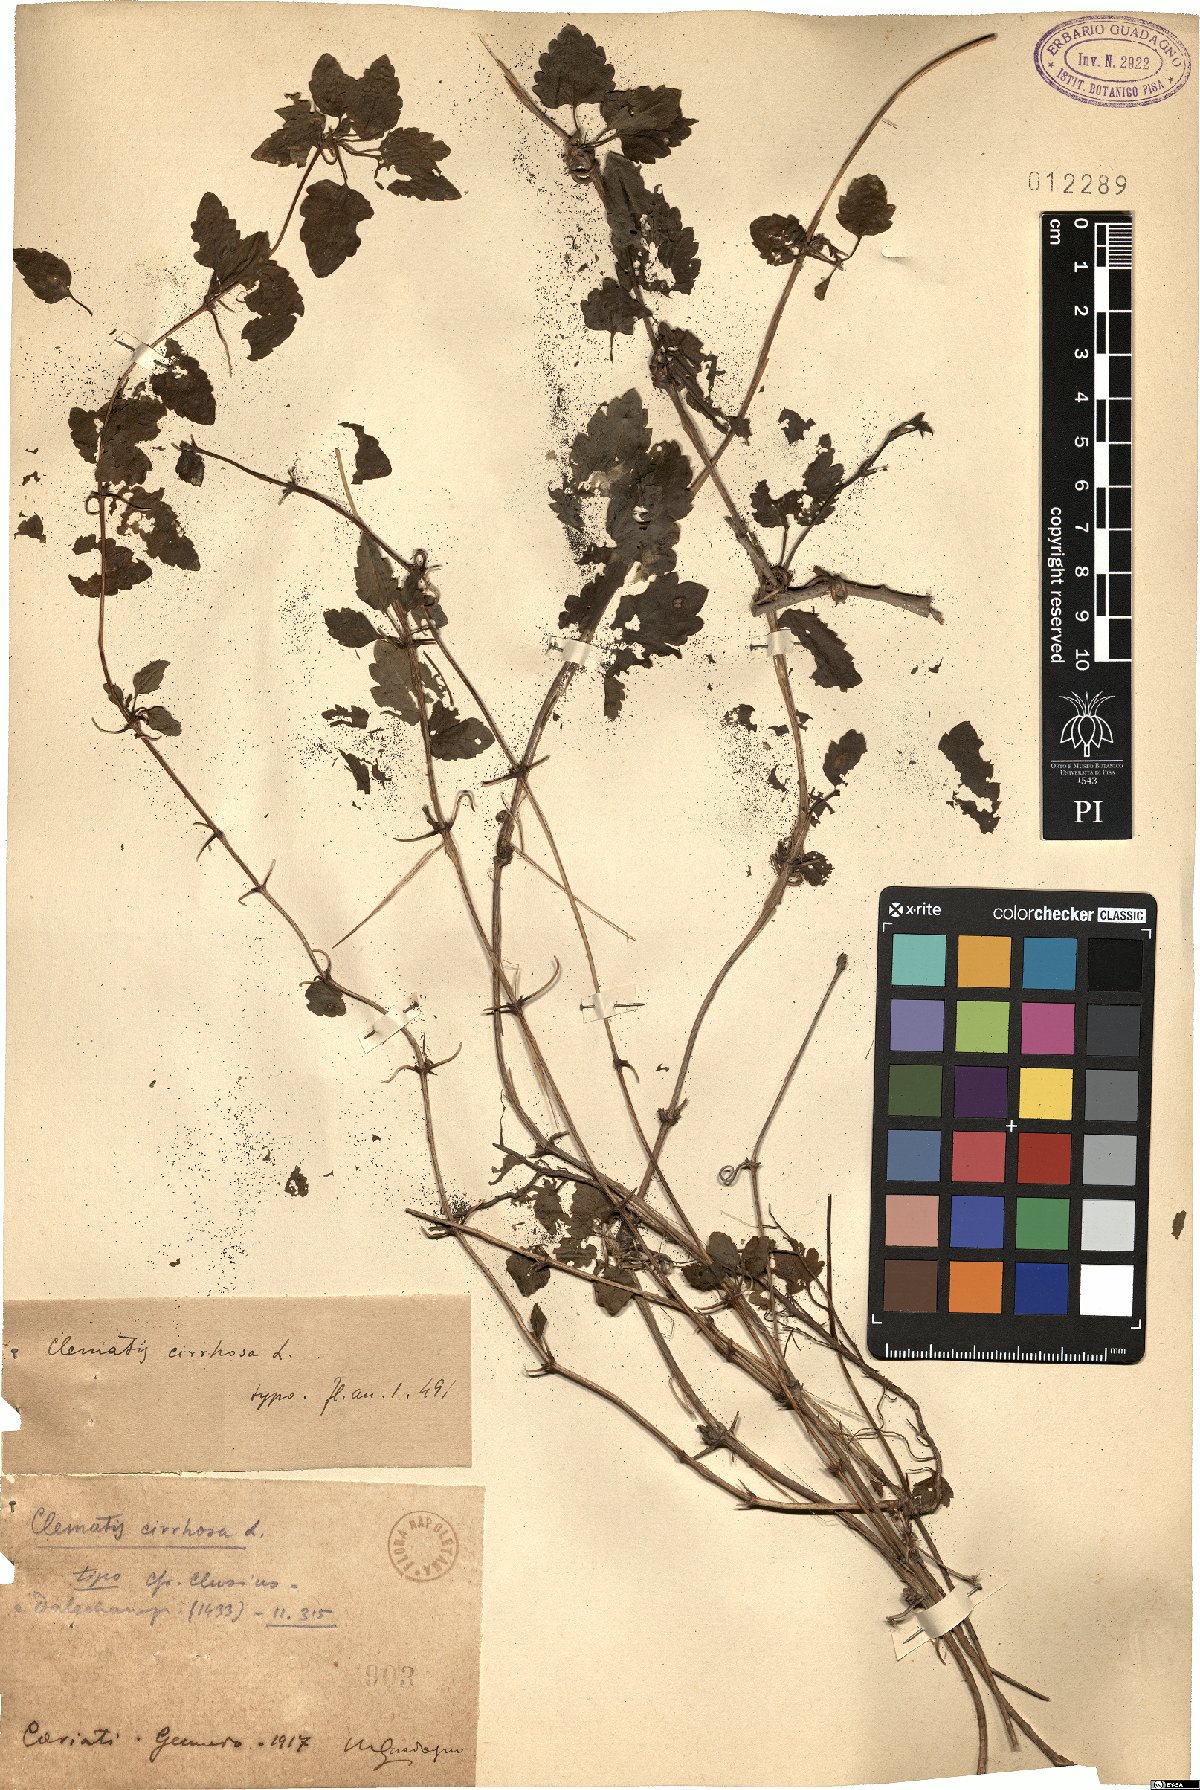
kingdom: Plantae
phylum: Tracheophyta
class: Magnoliopsida
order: Ranunculales
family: Ranunculaceae
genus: Clematis
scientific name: Clematis cirrhosa
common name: Early virgin's-bower
